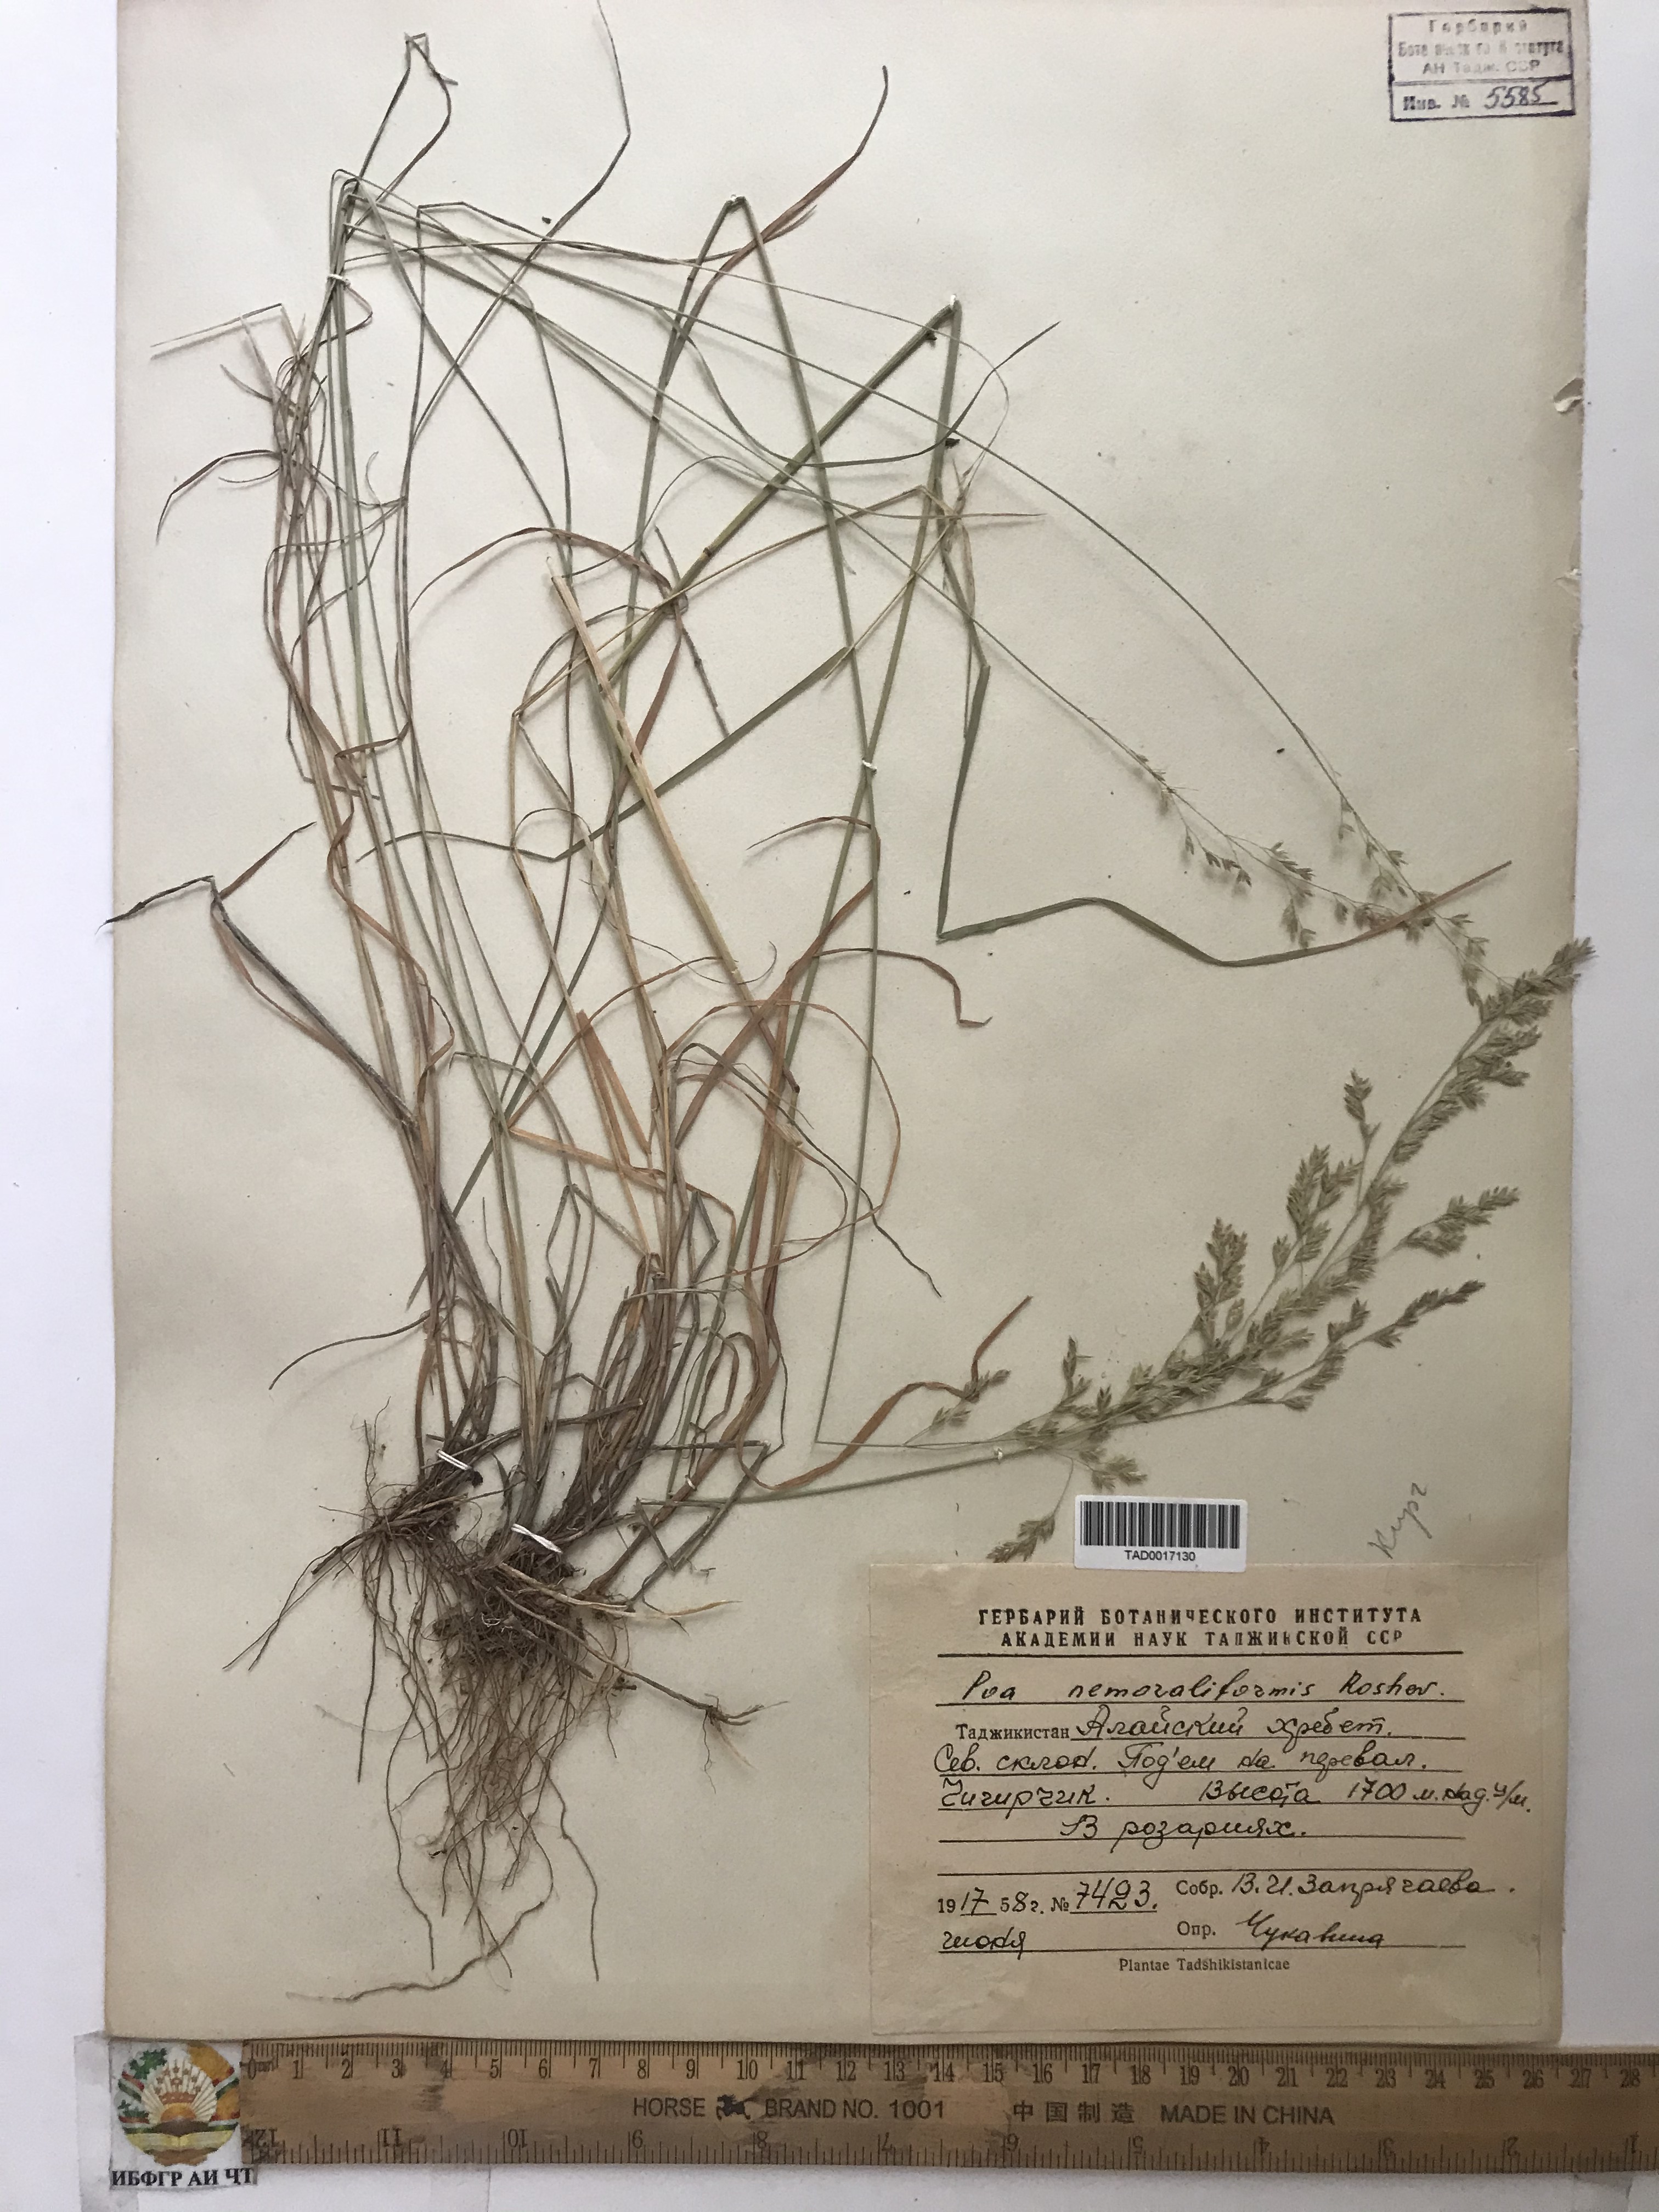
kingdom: Plantae
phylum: Tracheophyta
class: Liliopsida
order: Poales
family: Poaceae
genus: Poa
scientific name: Poa urssulensis
